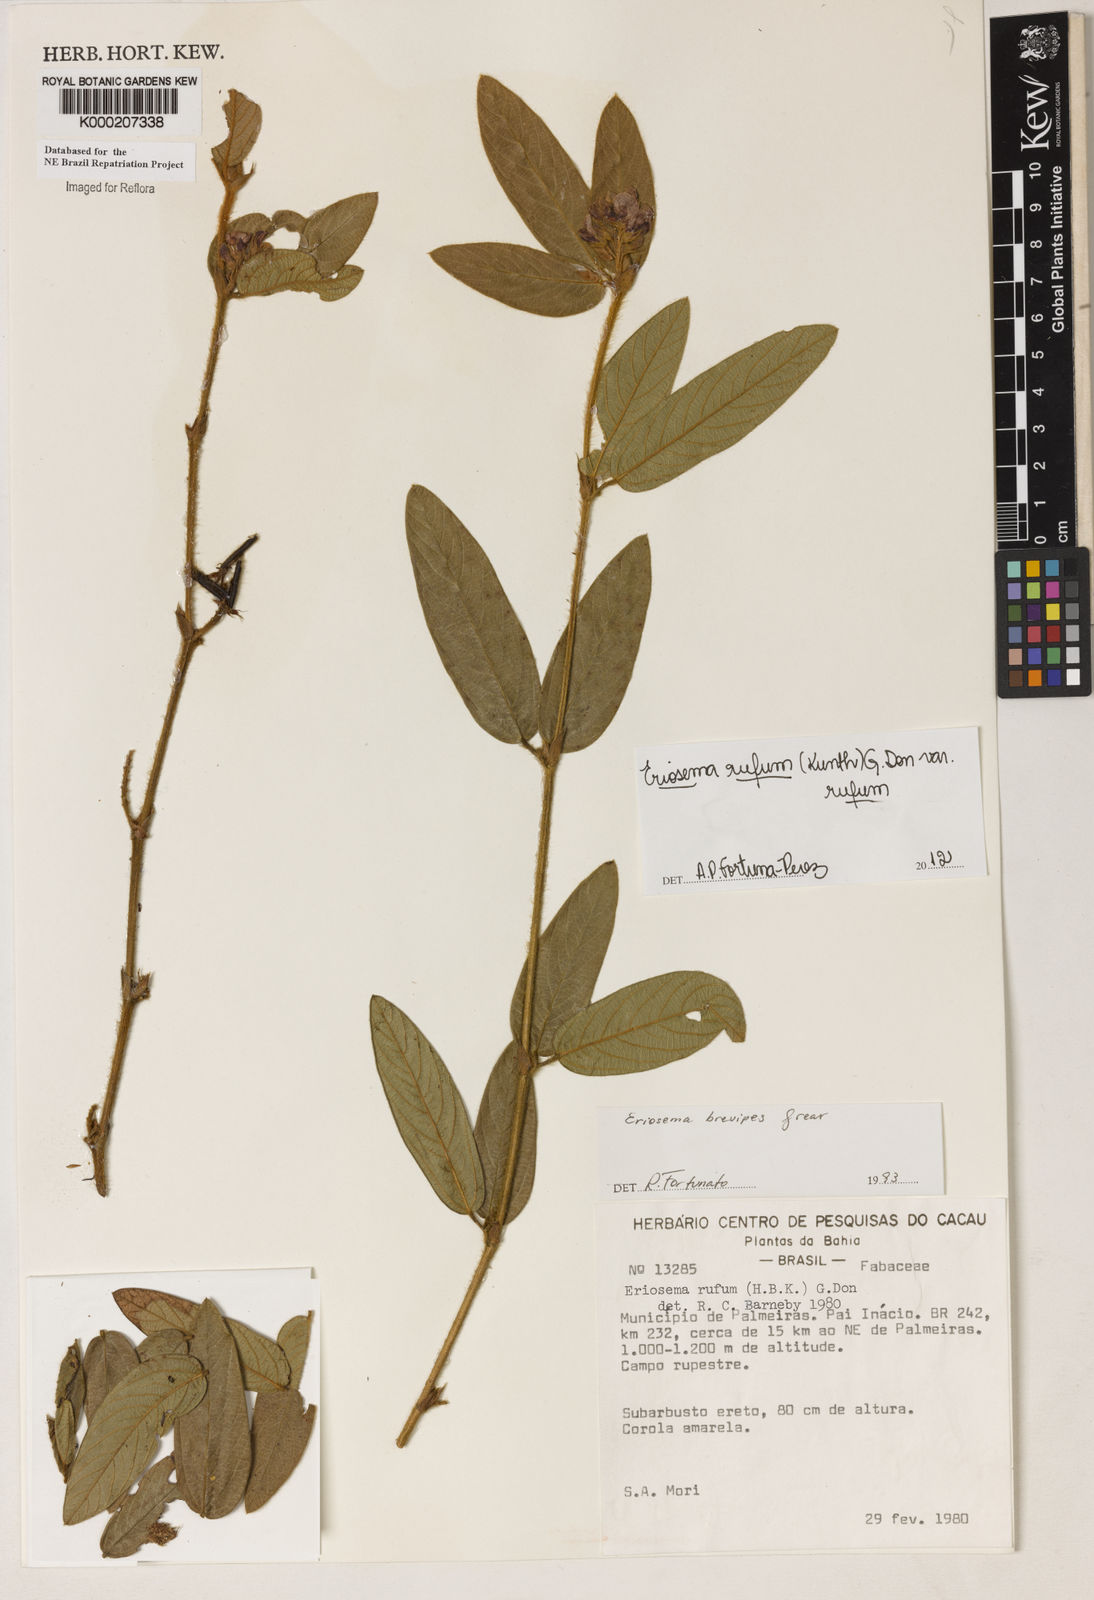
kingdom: Plantae
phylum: Tracheophyta
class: Magnoliopsida
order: Fabales
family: Fabaceae
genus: Eriosema
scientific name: Eriosema brevipes
